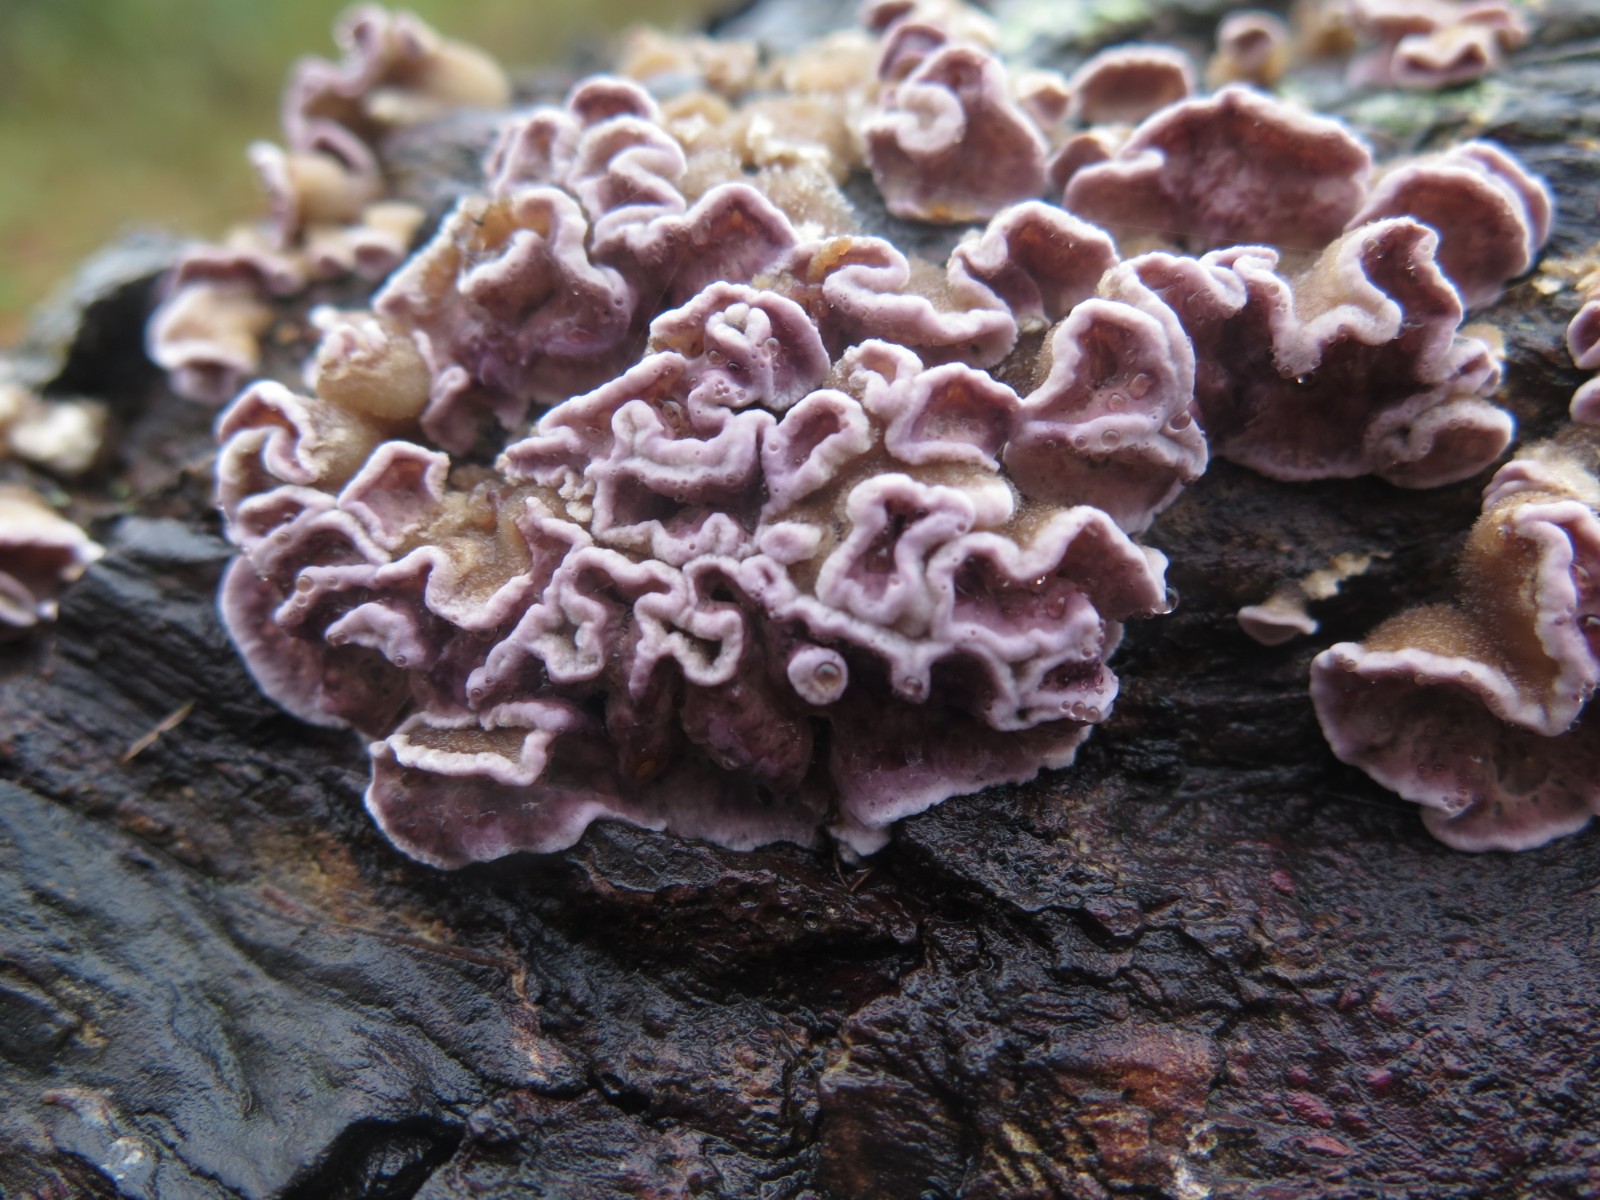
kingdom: Fungi
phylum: Basidiomycota
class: Agaricomycetes
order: Hymenochaetales
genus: Trichaptum
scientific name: Trichaptum abietinum
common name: almindelig violporesvamp
